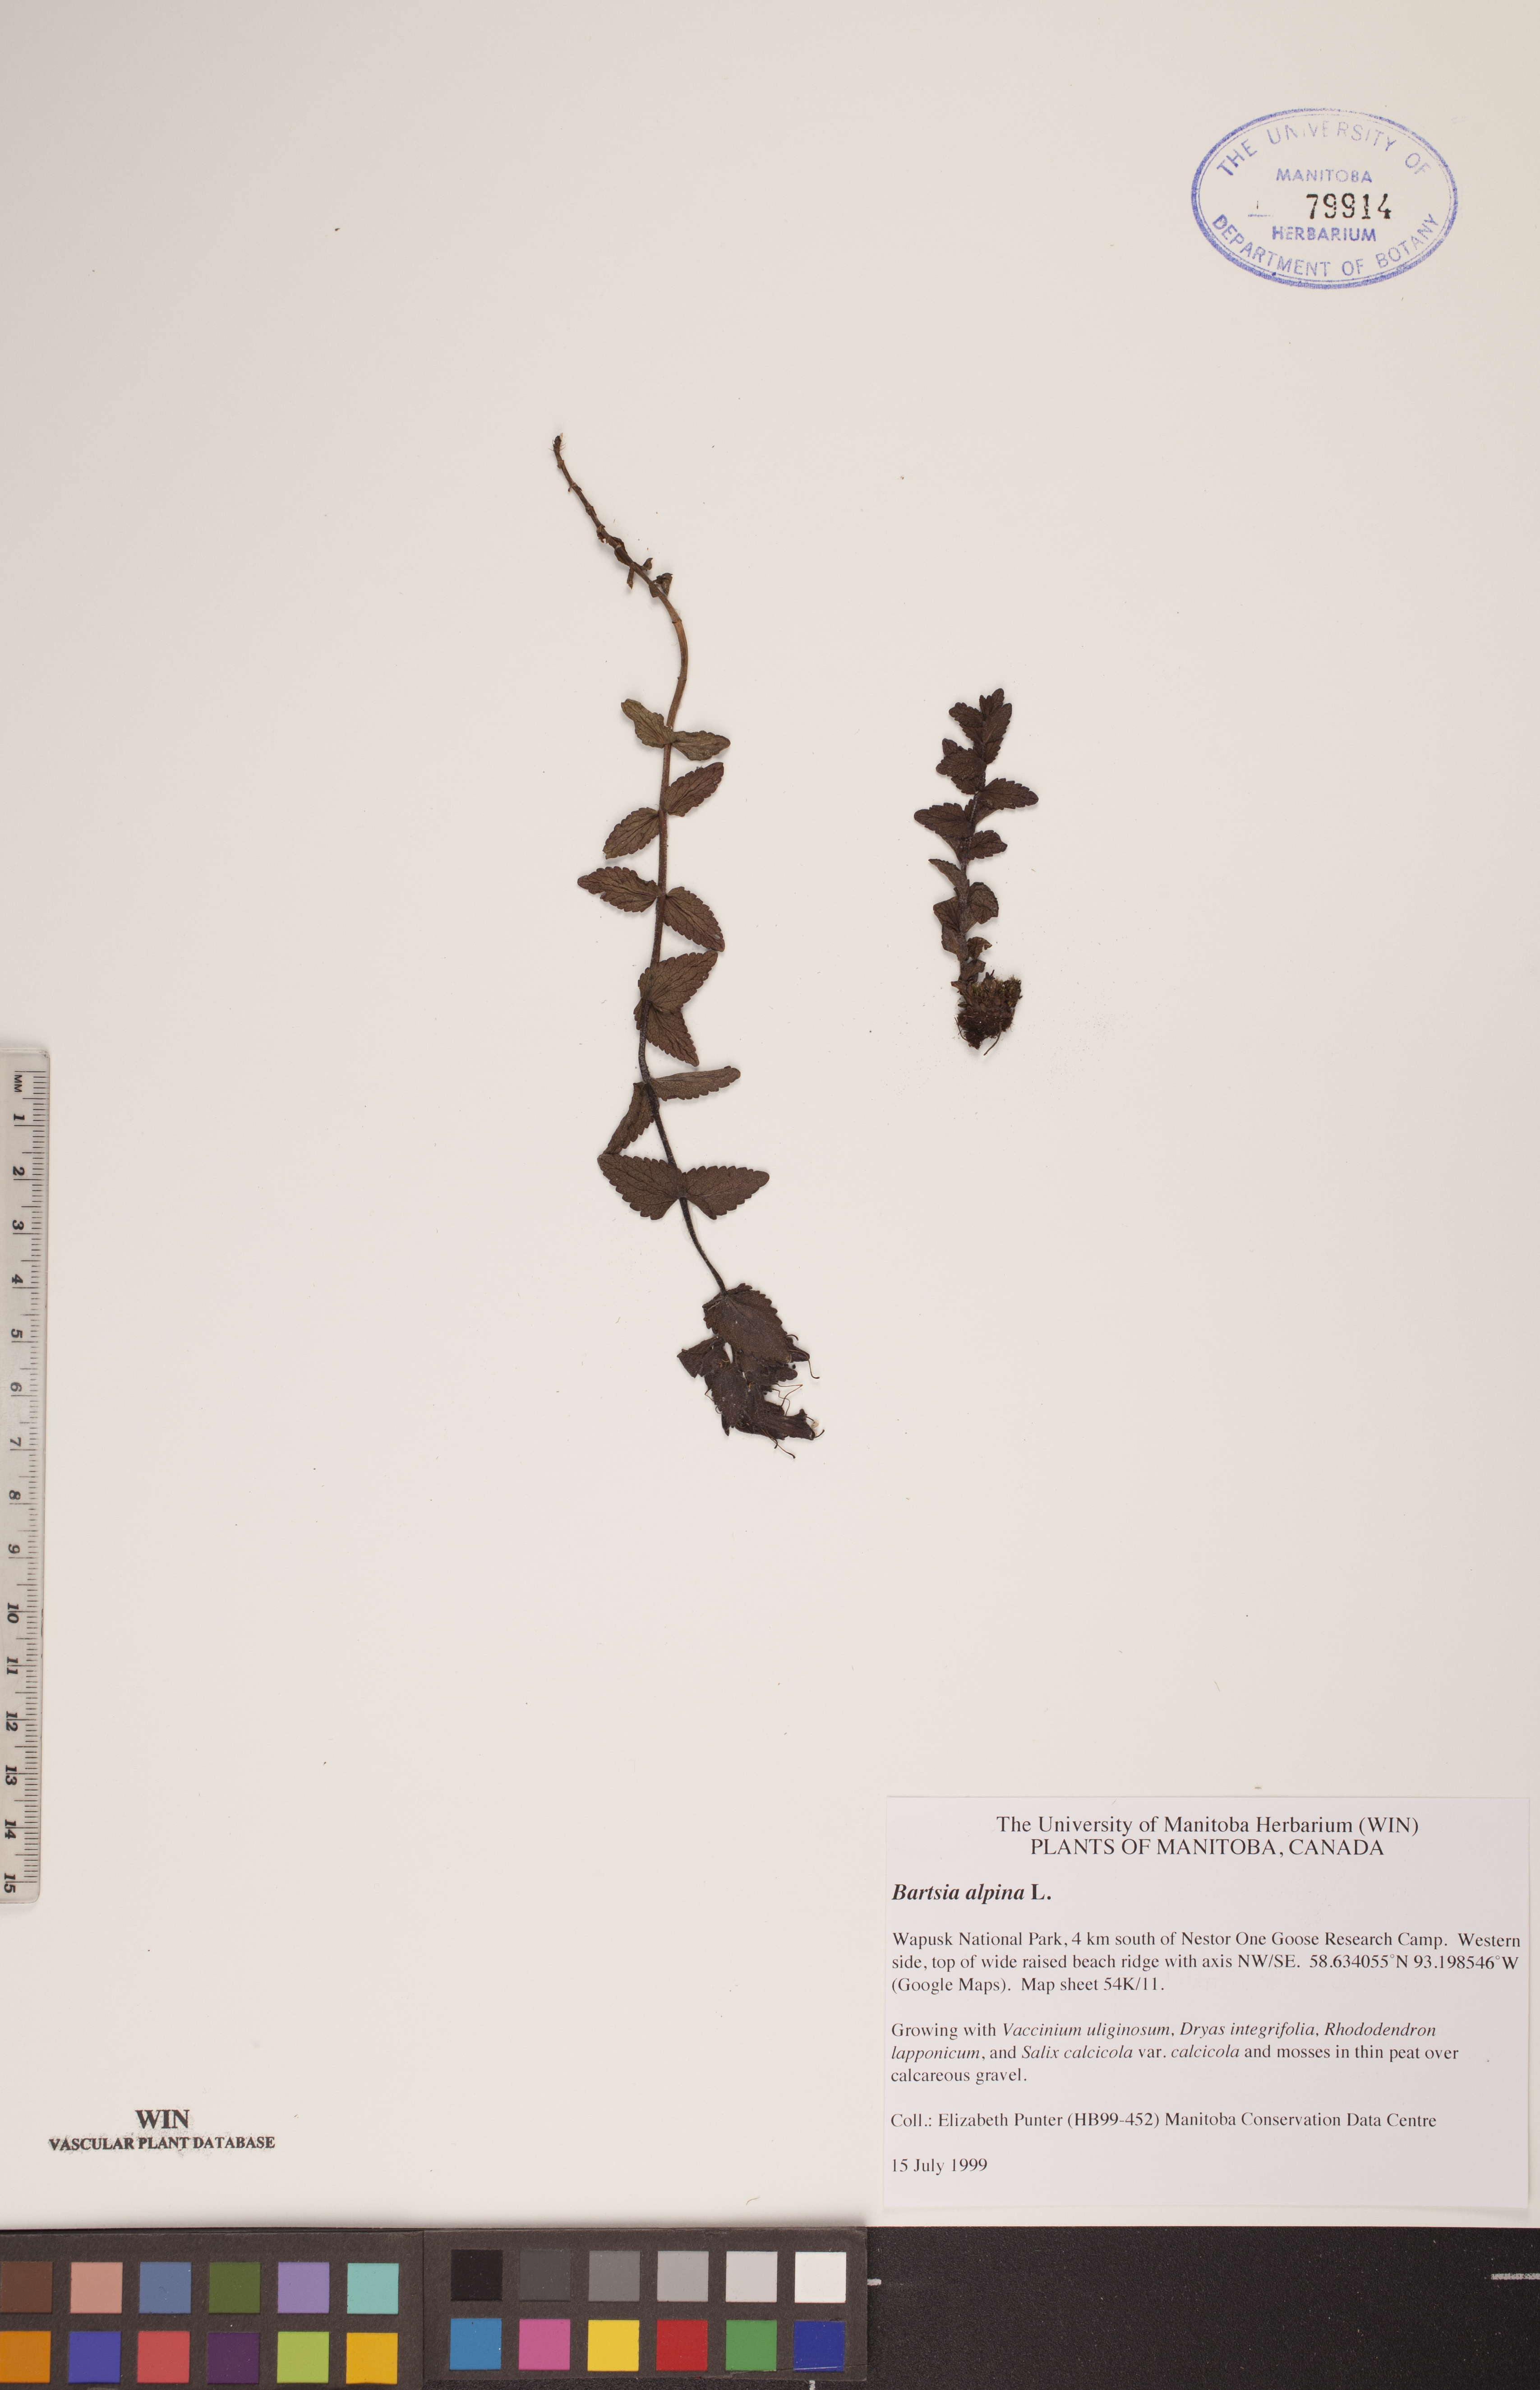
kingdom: Plantae
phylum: Tracheophyta
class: Magnoliopsida
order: Lamiales
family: Orobanchaceae
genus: Bartsia
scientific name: Bartsia alpina
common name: Alpine bartsia
